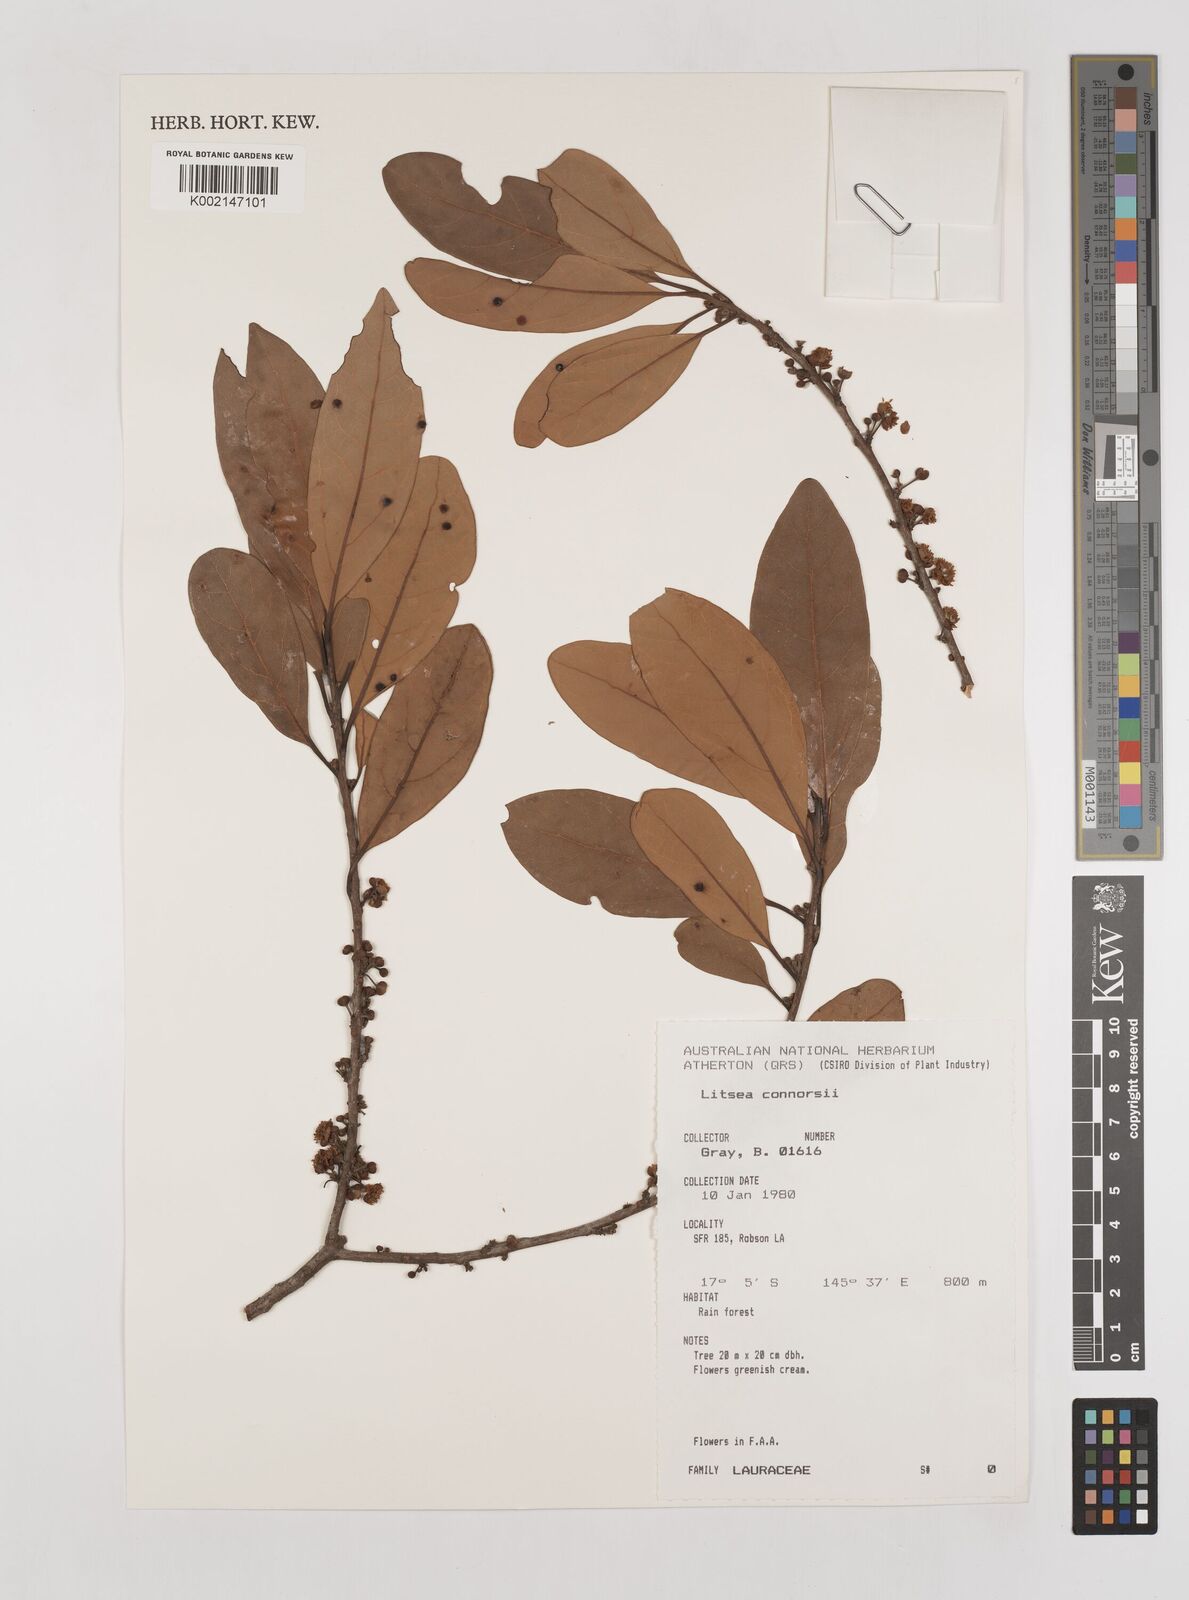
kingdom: Plantae
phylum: Tracheophyta
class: Magnoliopsida
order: Laurales
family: Lauraceae
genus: Litsea
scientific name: Litsea connorsii
